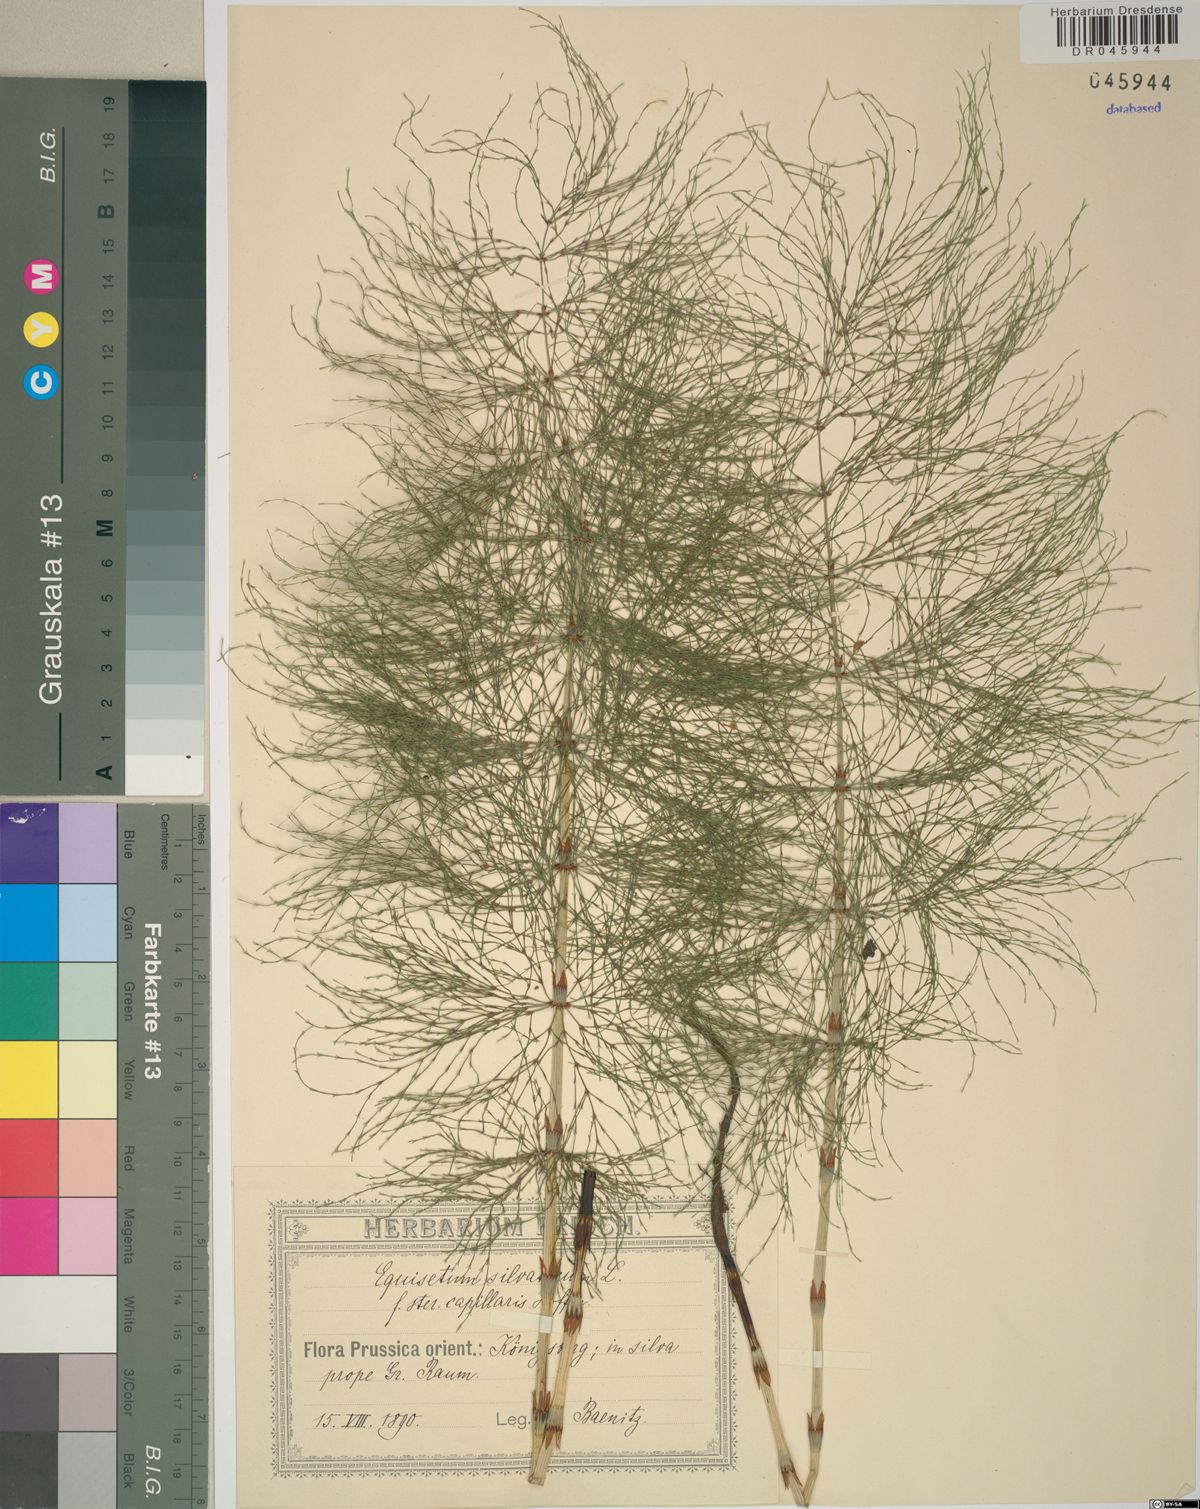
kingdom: Plantae
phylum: Tracheophyta
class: Polypodiopsida
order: Equisetales
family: Equisetaceae
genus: Equisetum
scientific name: Equisetum sylvaticum
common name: Wood horsetail
